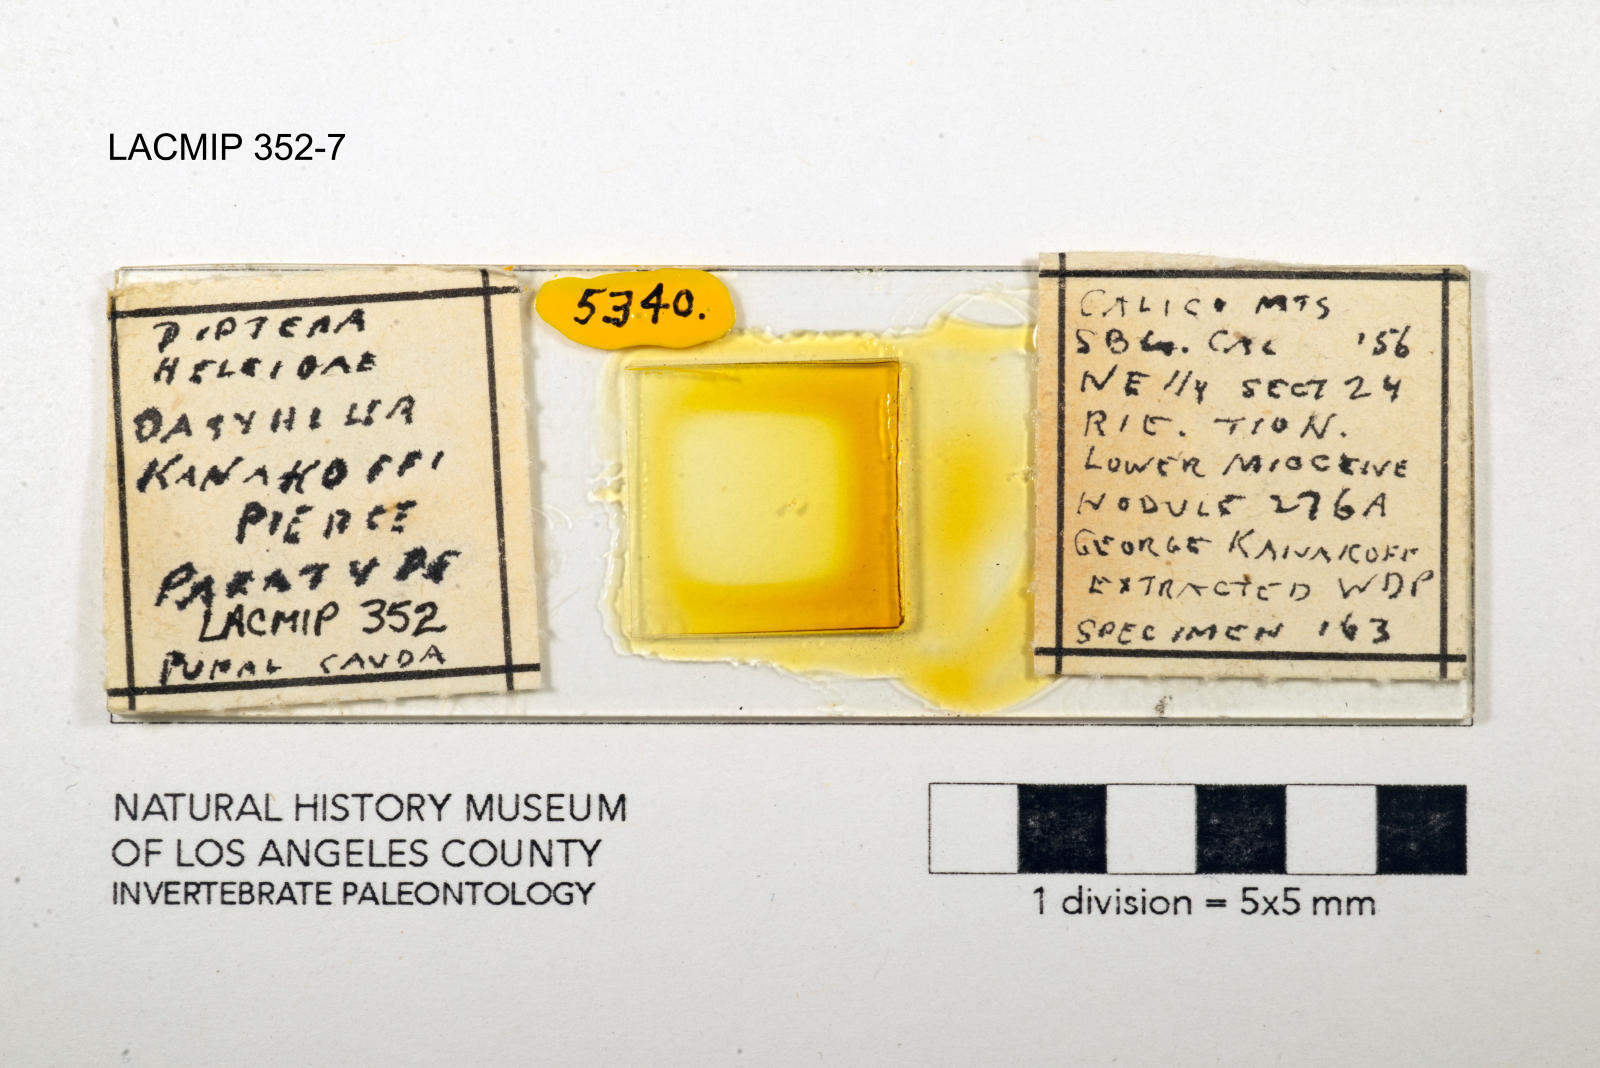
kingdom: Animalia
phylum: Arthropoda
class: Insecta
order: Diptera
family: Ceratopogonidae
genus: Dasyhelea
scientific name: Dasyhelea kanakoffi
